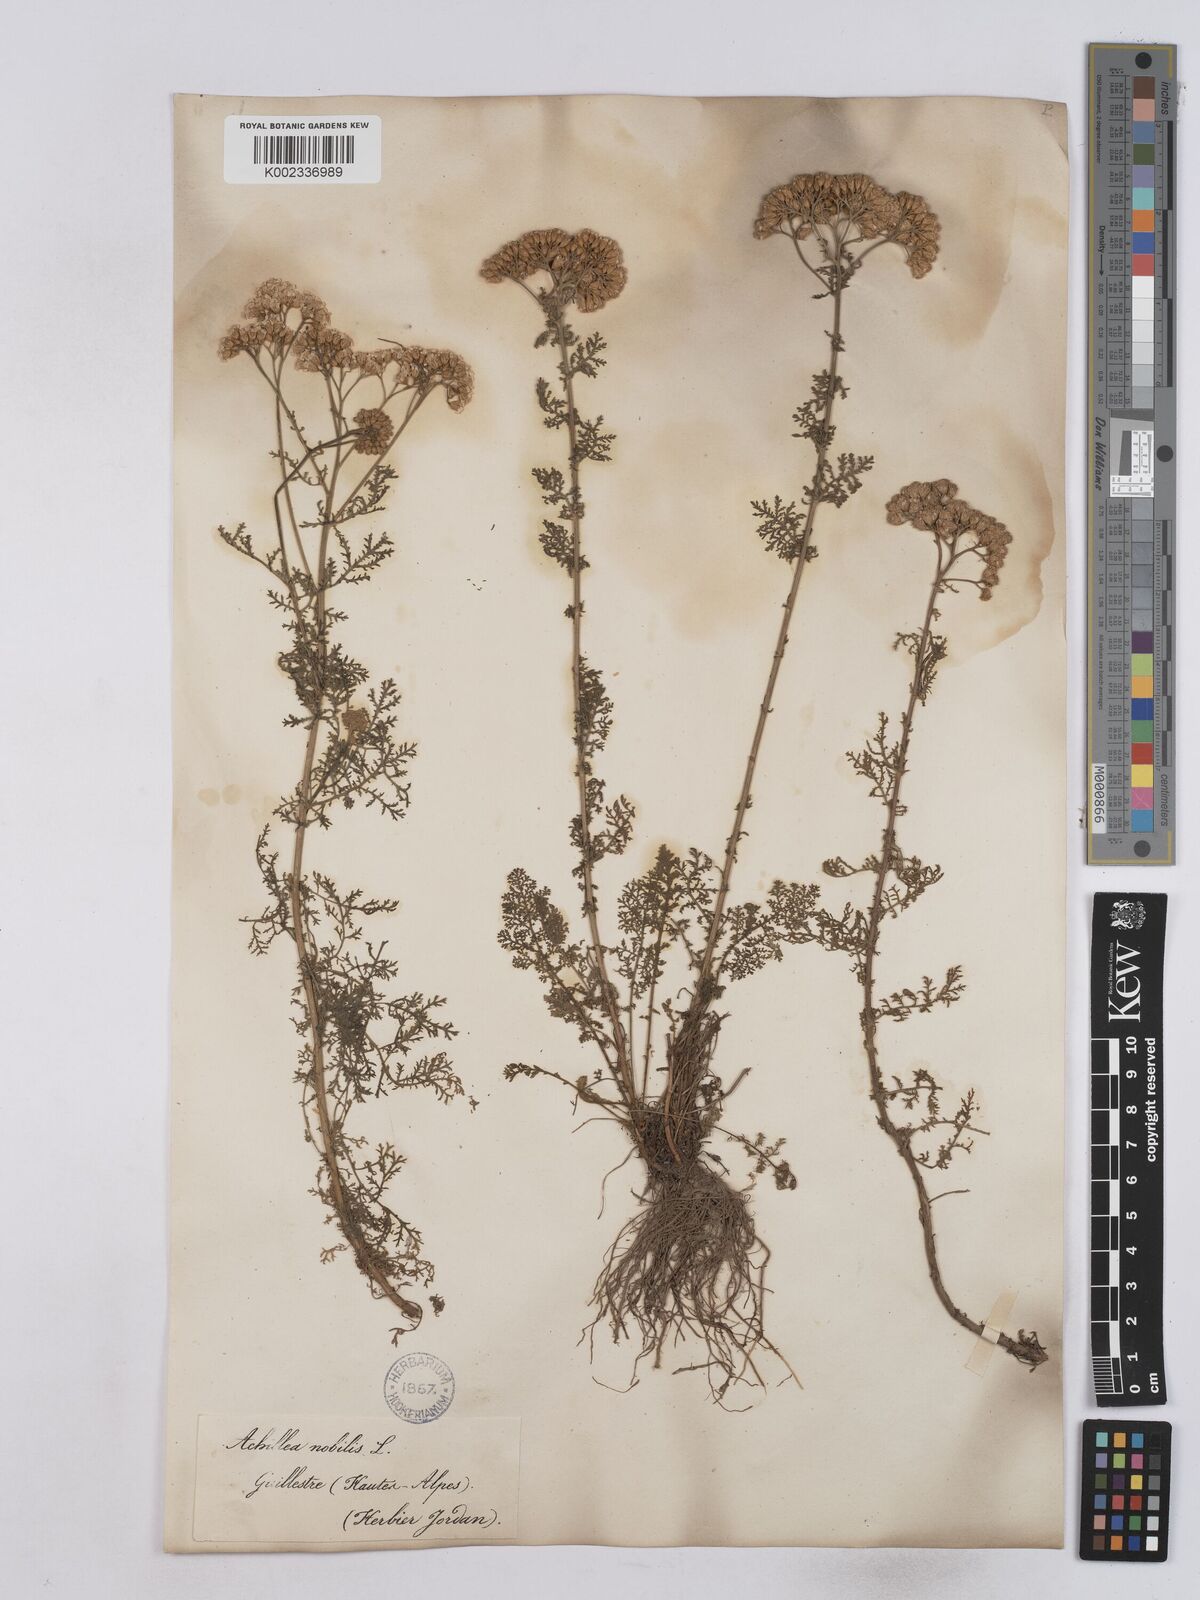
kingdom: Plantae
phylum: Tracheophyta
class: Magnoliopsida
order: Asterales
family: Asteraceae
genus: Achillea
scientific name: Achillea nobilis
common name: Noble yarrow
